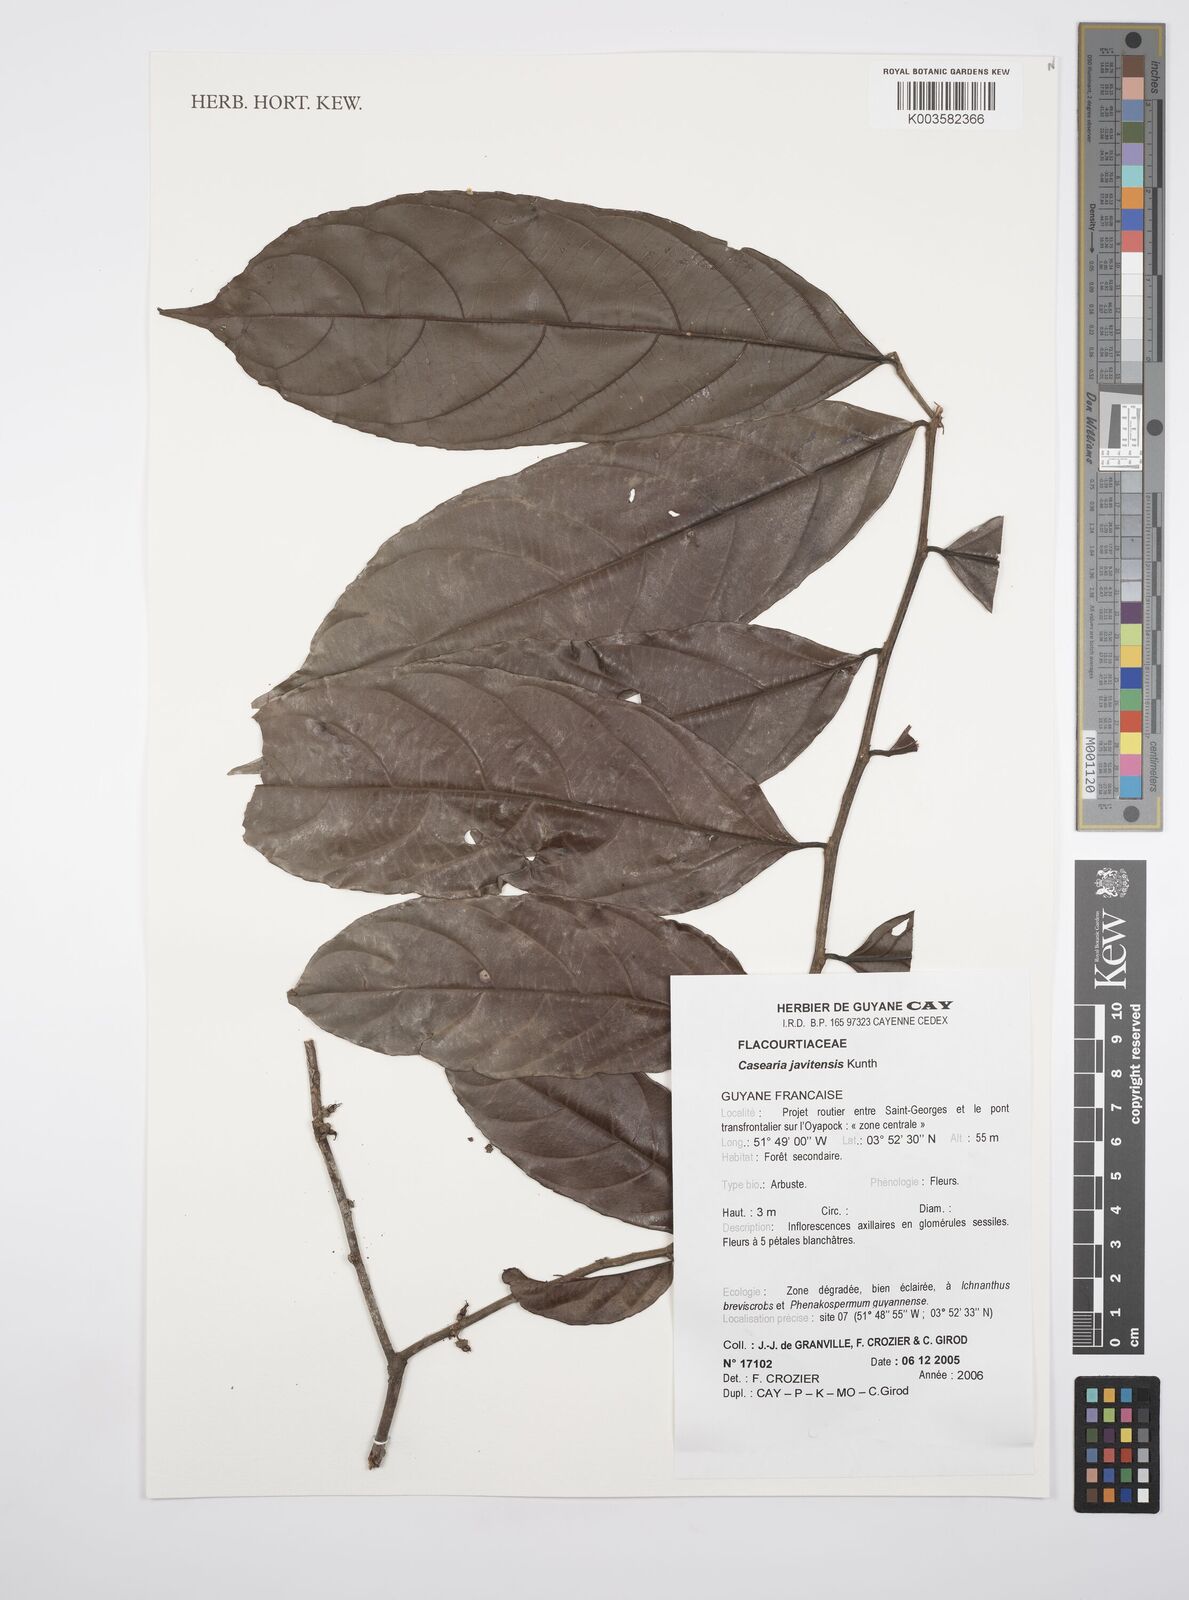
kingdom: Plantae
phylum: Tracheophyta
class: Magnoliopsida
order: Malpighiales
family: Salicaceae
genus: Piparea
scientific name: Piparea multiflora
